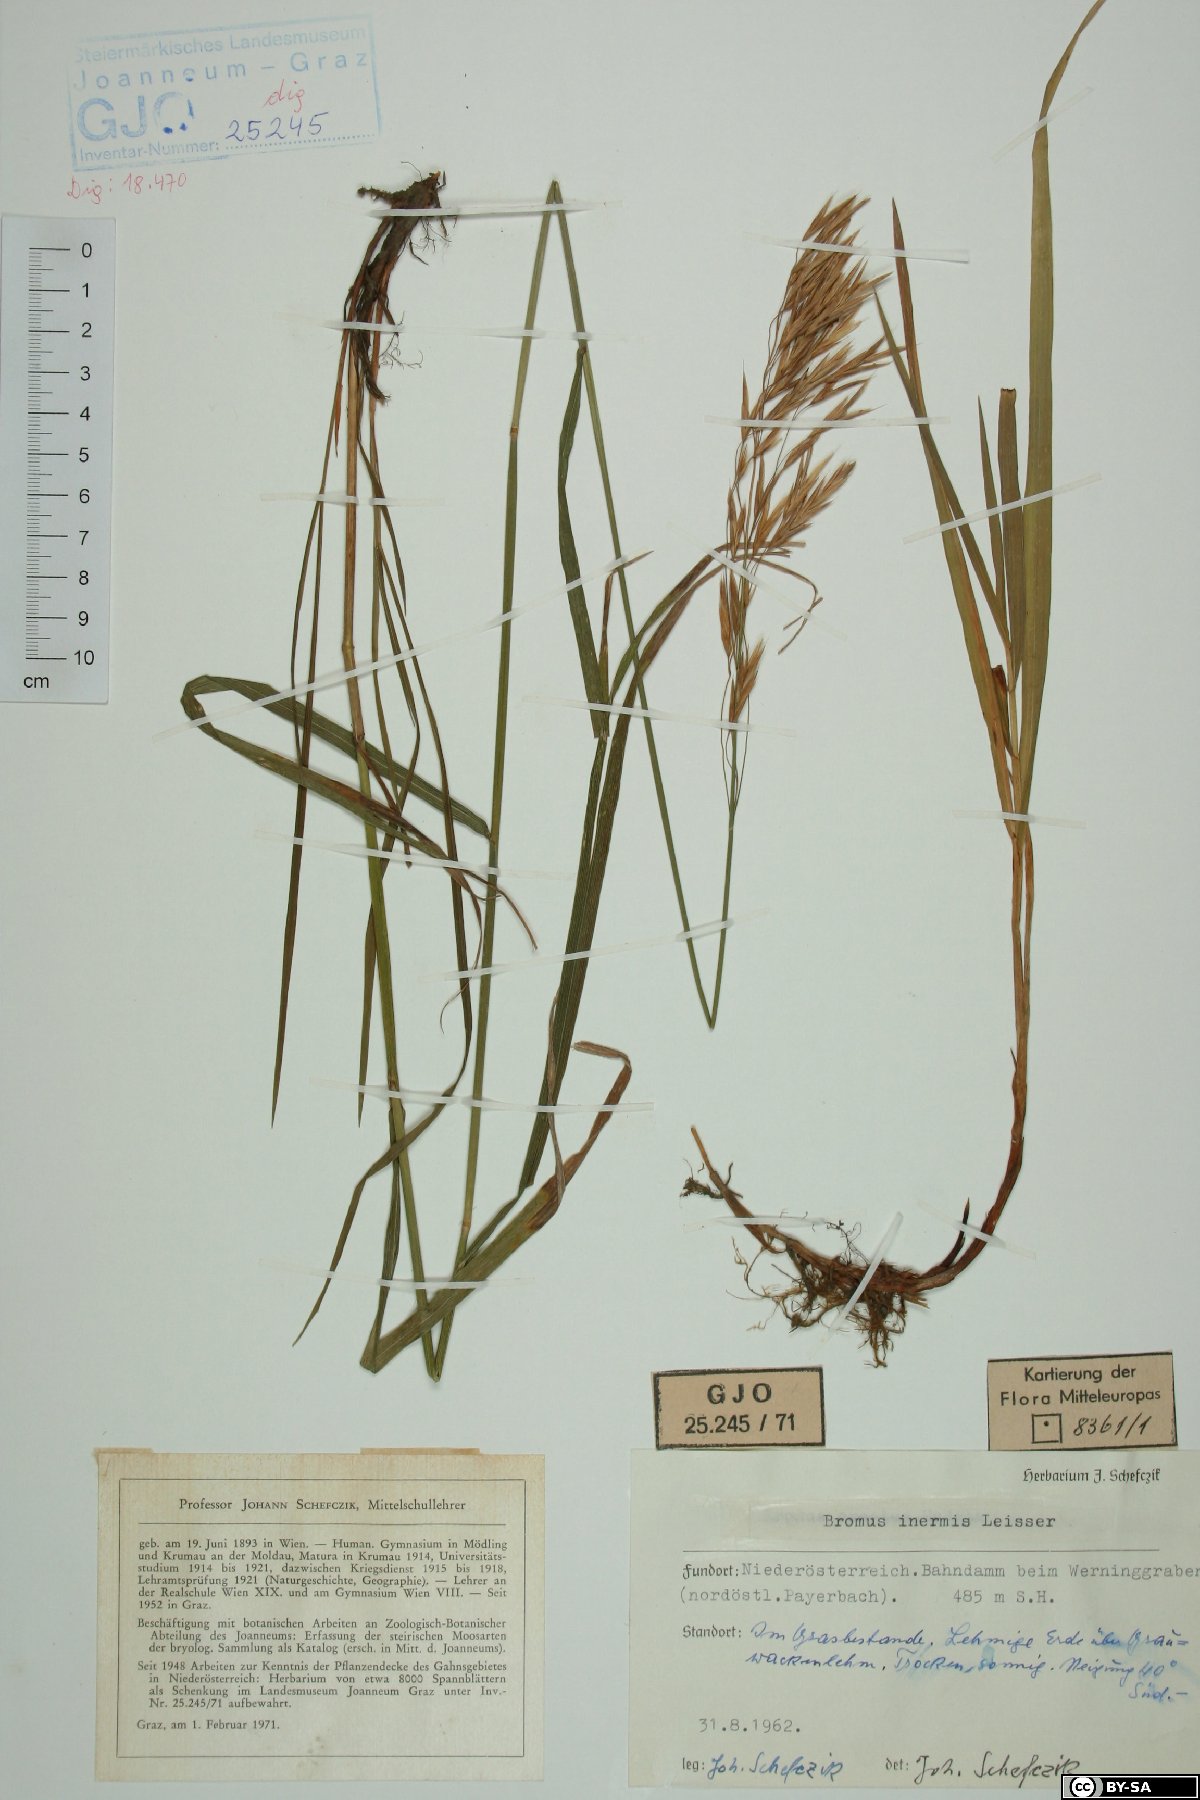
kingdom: Plantae
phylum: Tracheophyta
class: Liliopsida
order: Poales
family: Poaceae
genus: Bromus
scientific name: Bromus inermis
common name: Smooth brome
